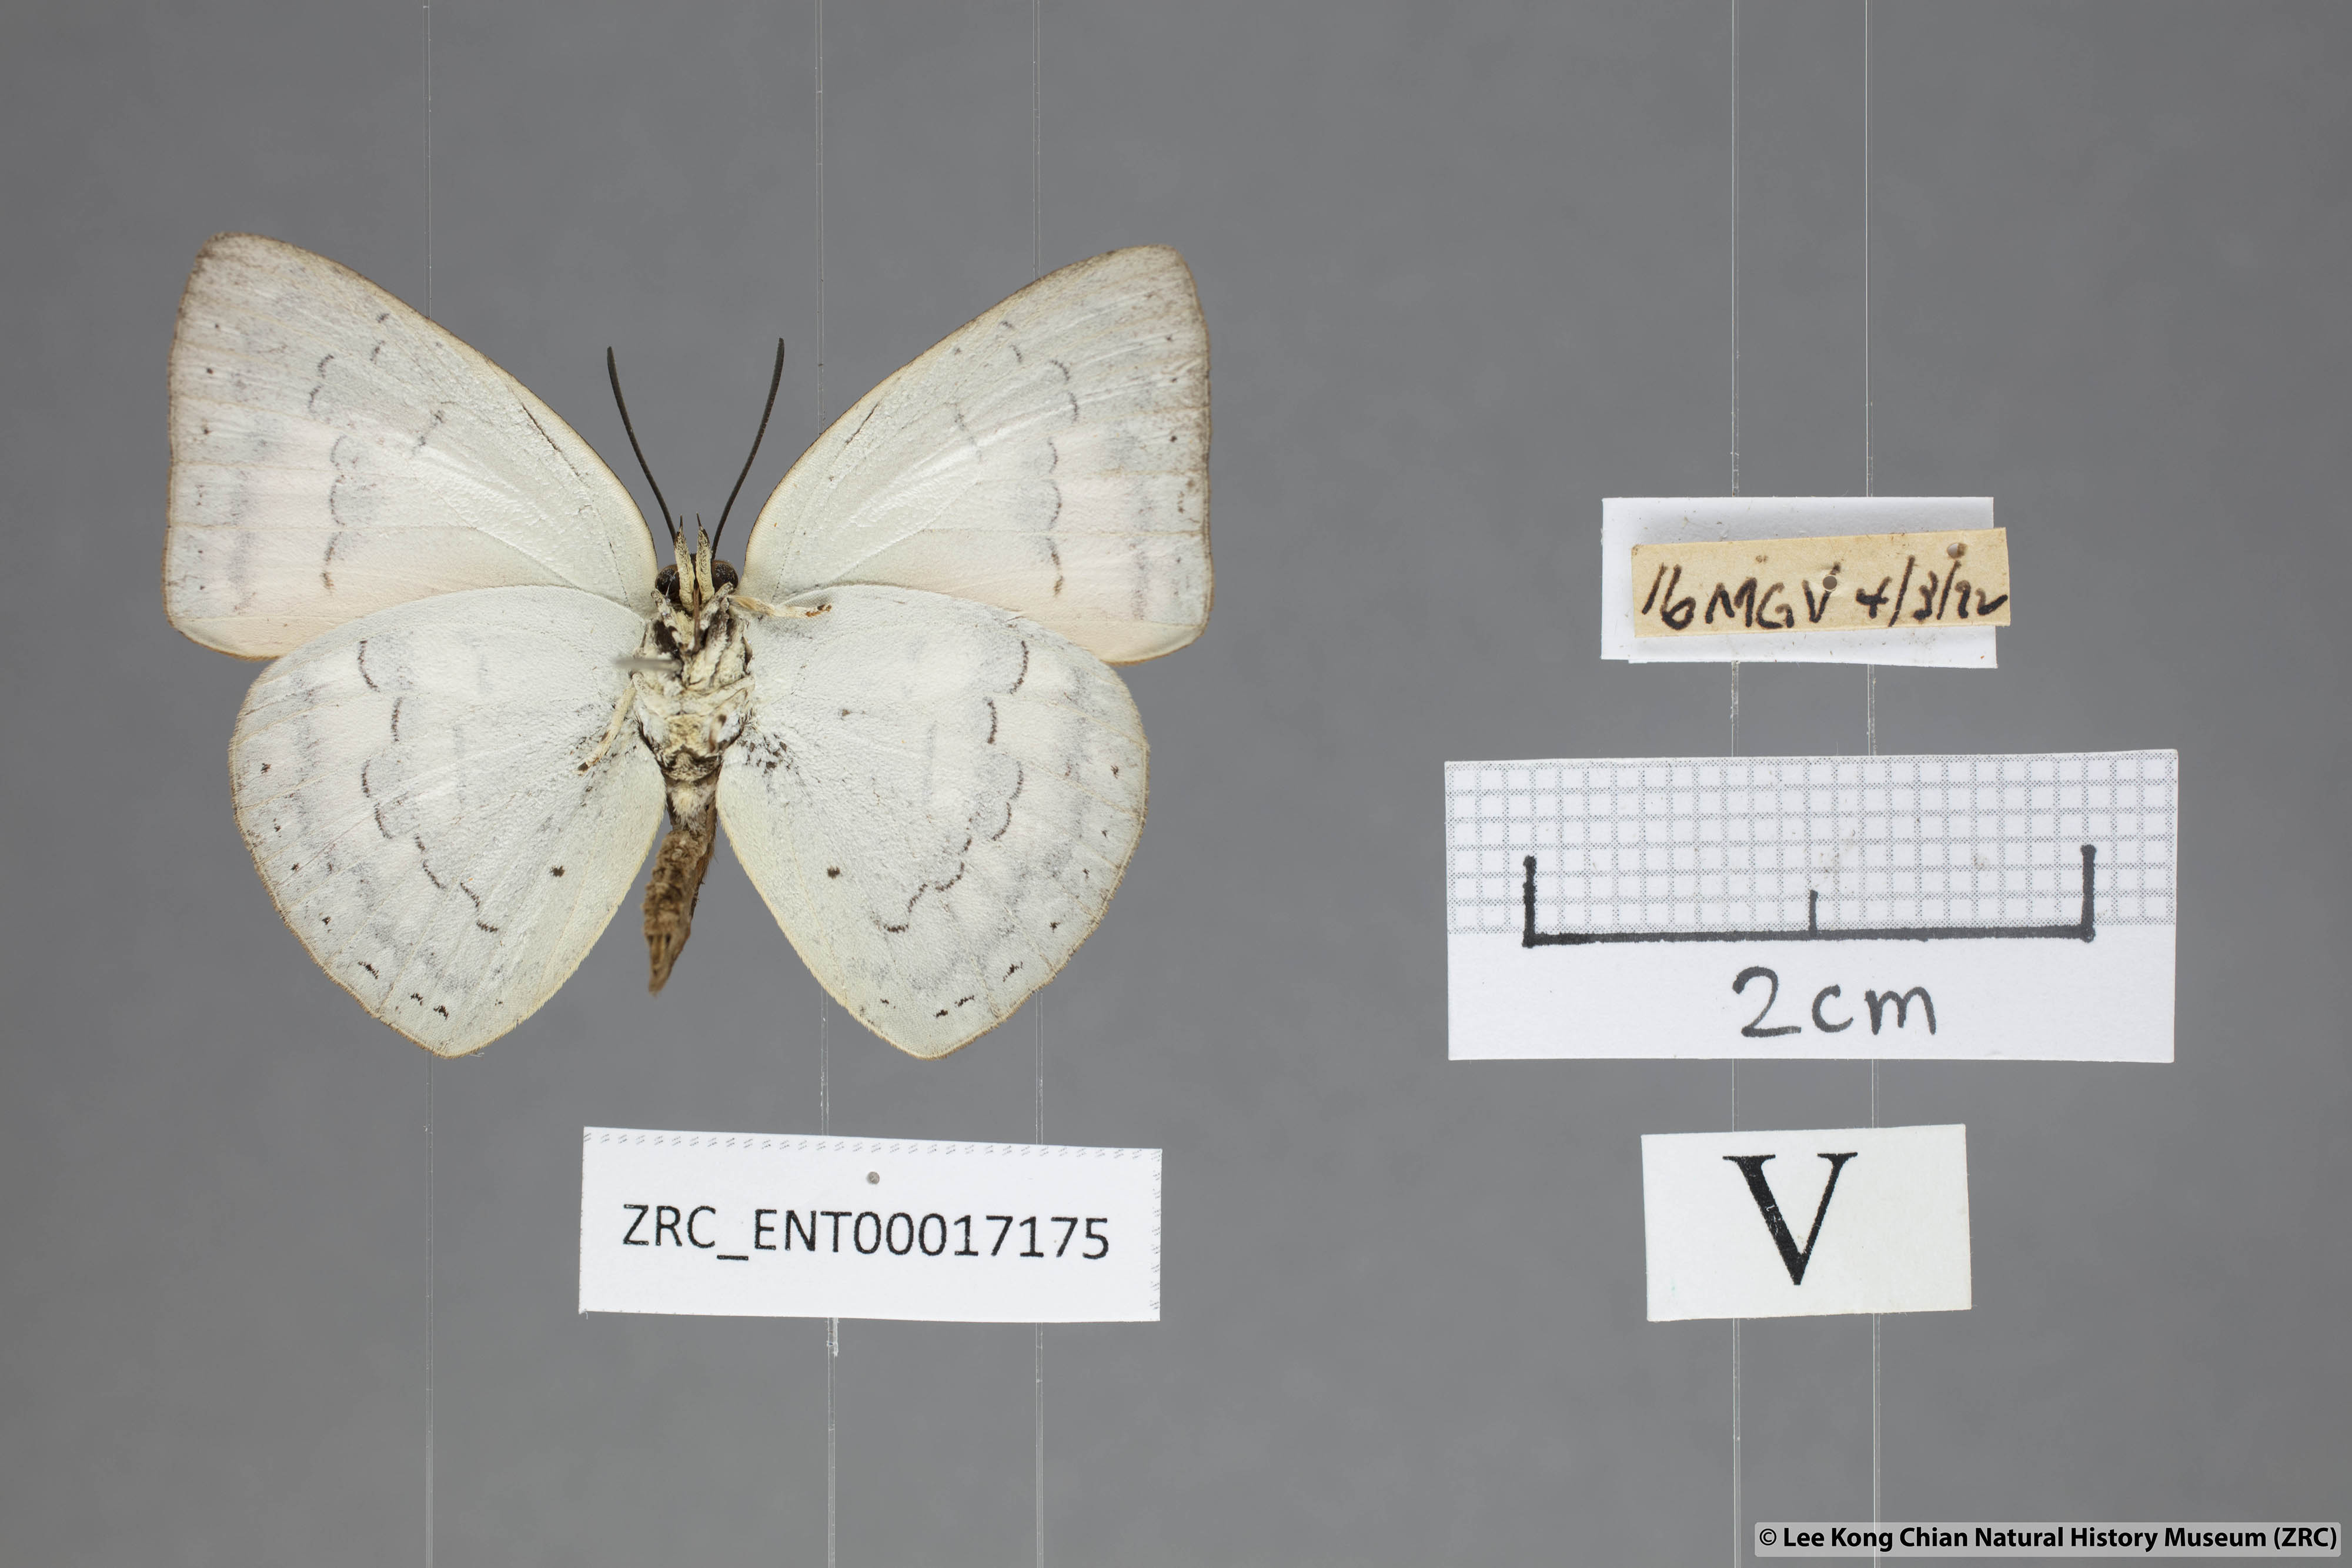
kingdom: Animalia
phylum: Arthropoda
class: Insecta
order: Lepidoptera
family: Lycaenidae
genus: Curetis
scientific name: Curetis tagalica
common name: Southern sunbeam
